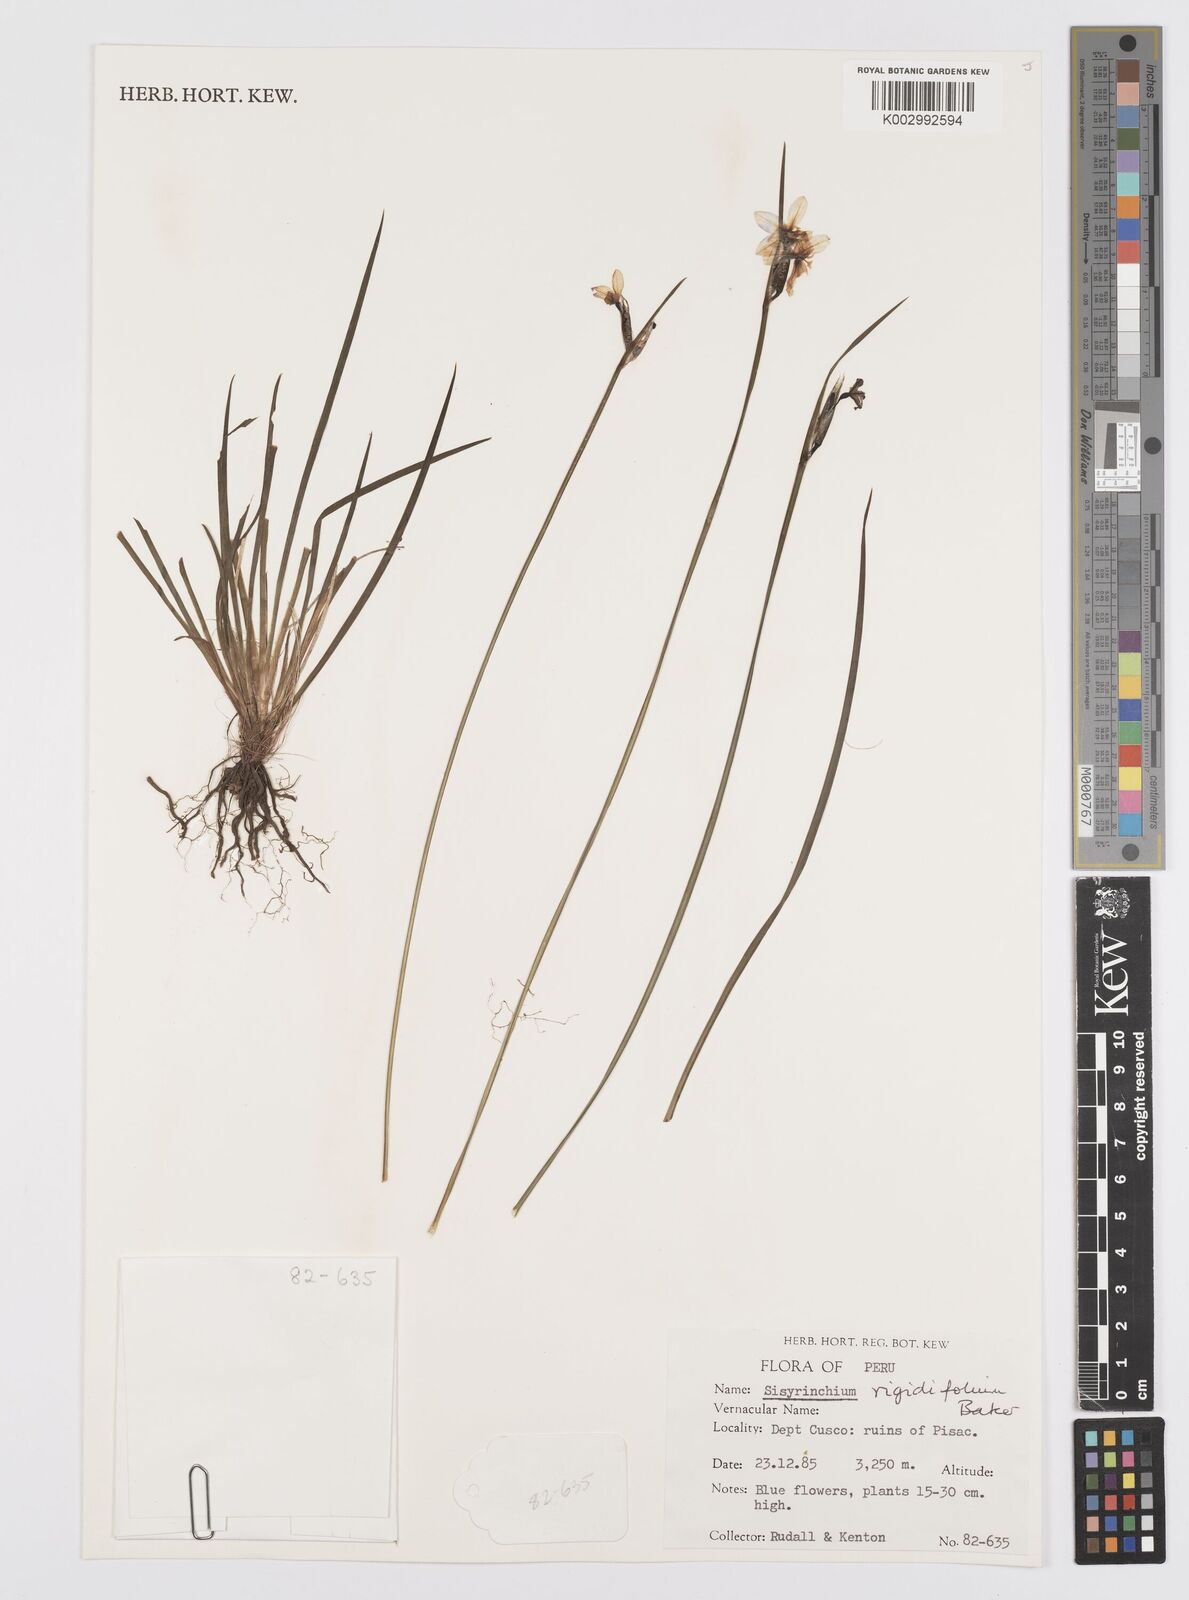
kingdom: Plantae
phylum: Tracheophyta
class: Liliopsida
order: Asparagales
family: Iridaceae
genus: Sisyrinchium
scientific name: Sisyrinchium rigidifolium
